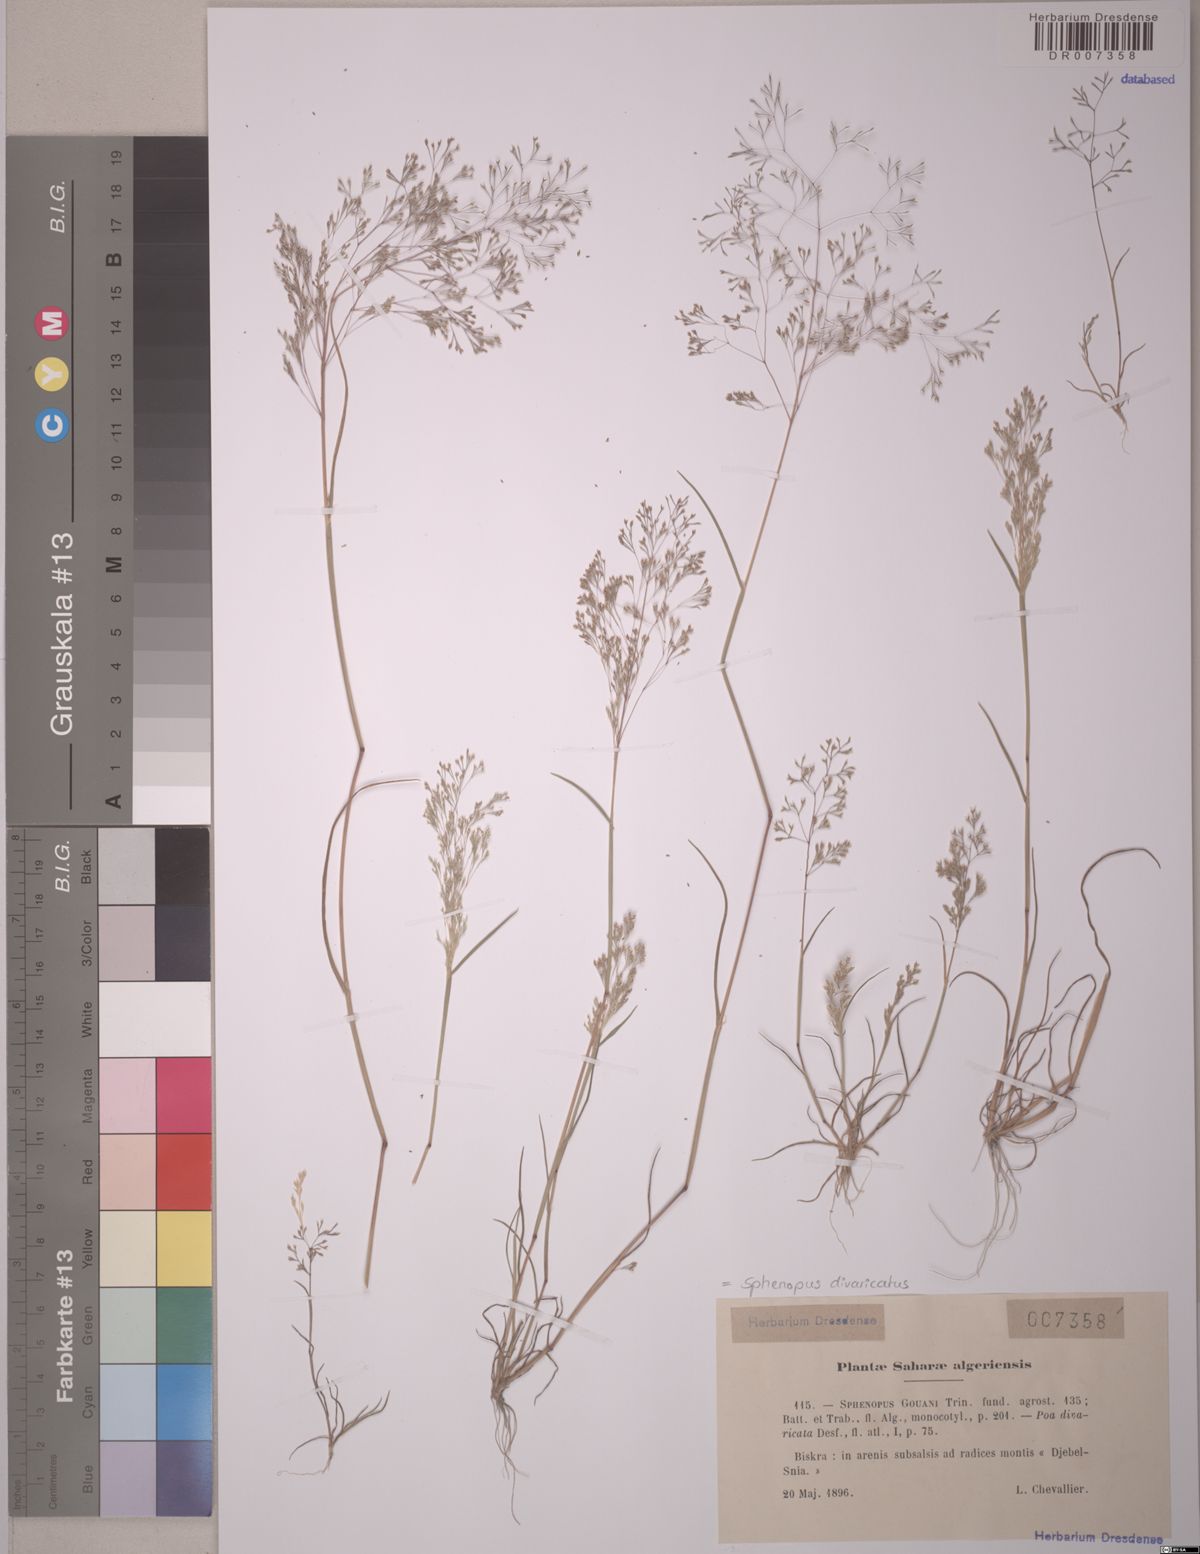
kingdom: Plantae
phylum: Tracheophyta
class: Liliopsida
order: Poales
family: Poaceae
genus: Sphenopus
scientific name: Sphenopus divaricatus
